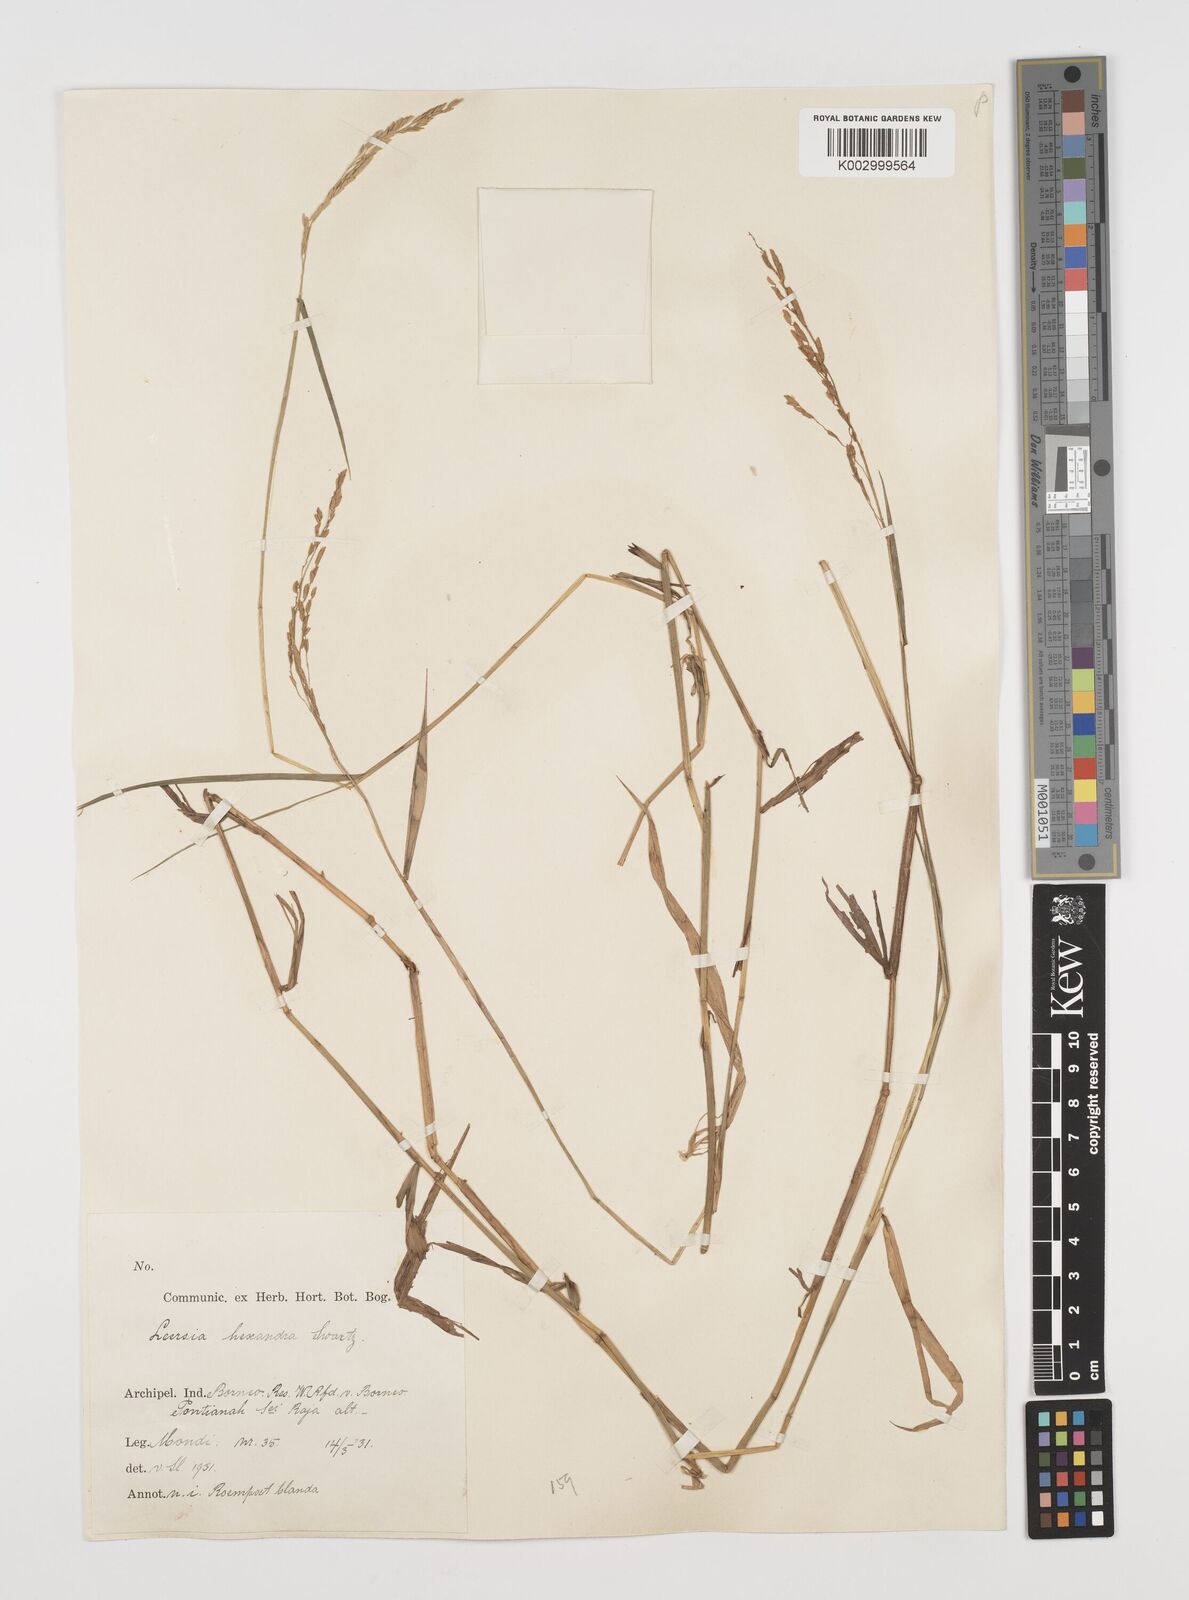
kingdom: Plantae
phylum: Tracheophyta
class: Liliopsida
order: Poales
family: Poaceae
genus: Leersia
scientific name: Leersia hexandra
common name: Southern cut grass
